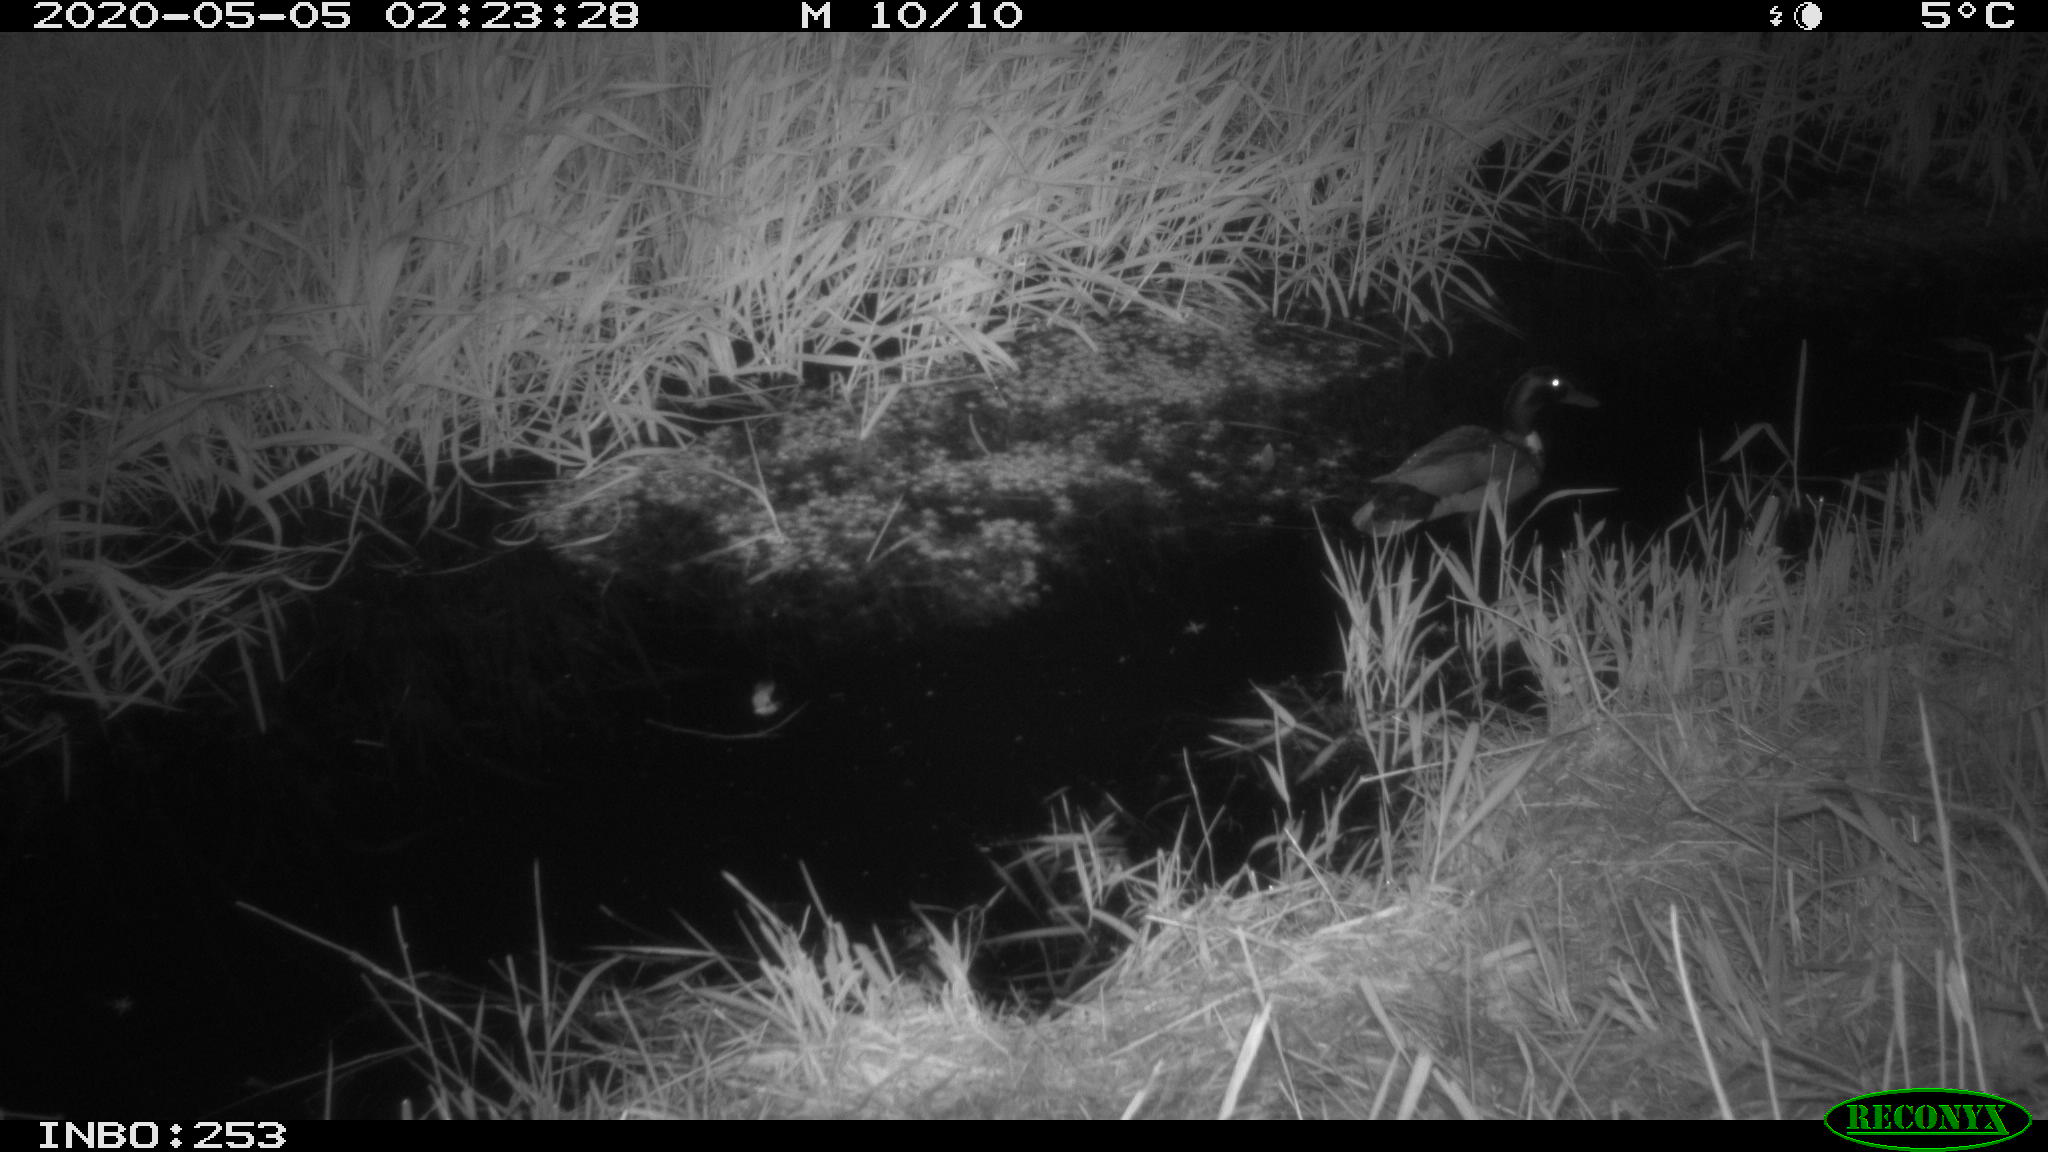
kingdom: Animalia
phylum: Chordata
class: Aves
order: Anseriformes
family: Anatidae
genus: Anas
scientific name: Anas platyrhynchos
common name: Mallard
